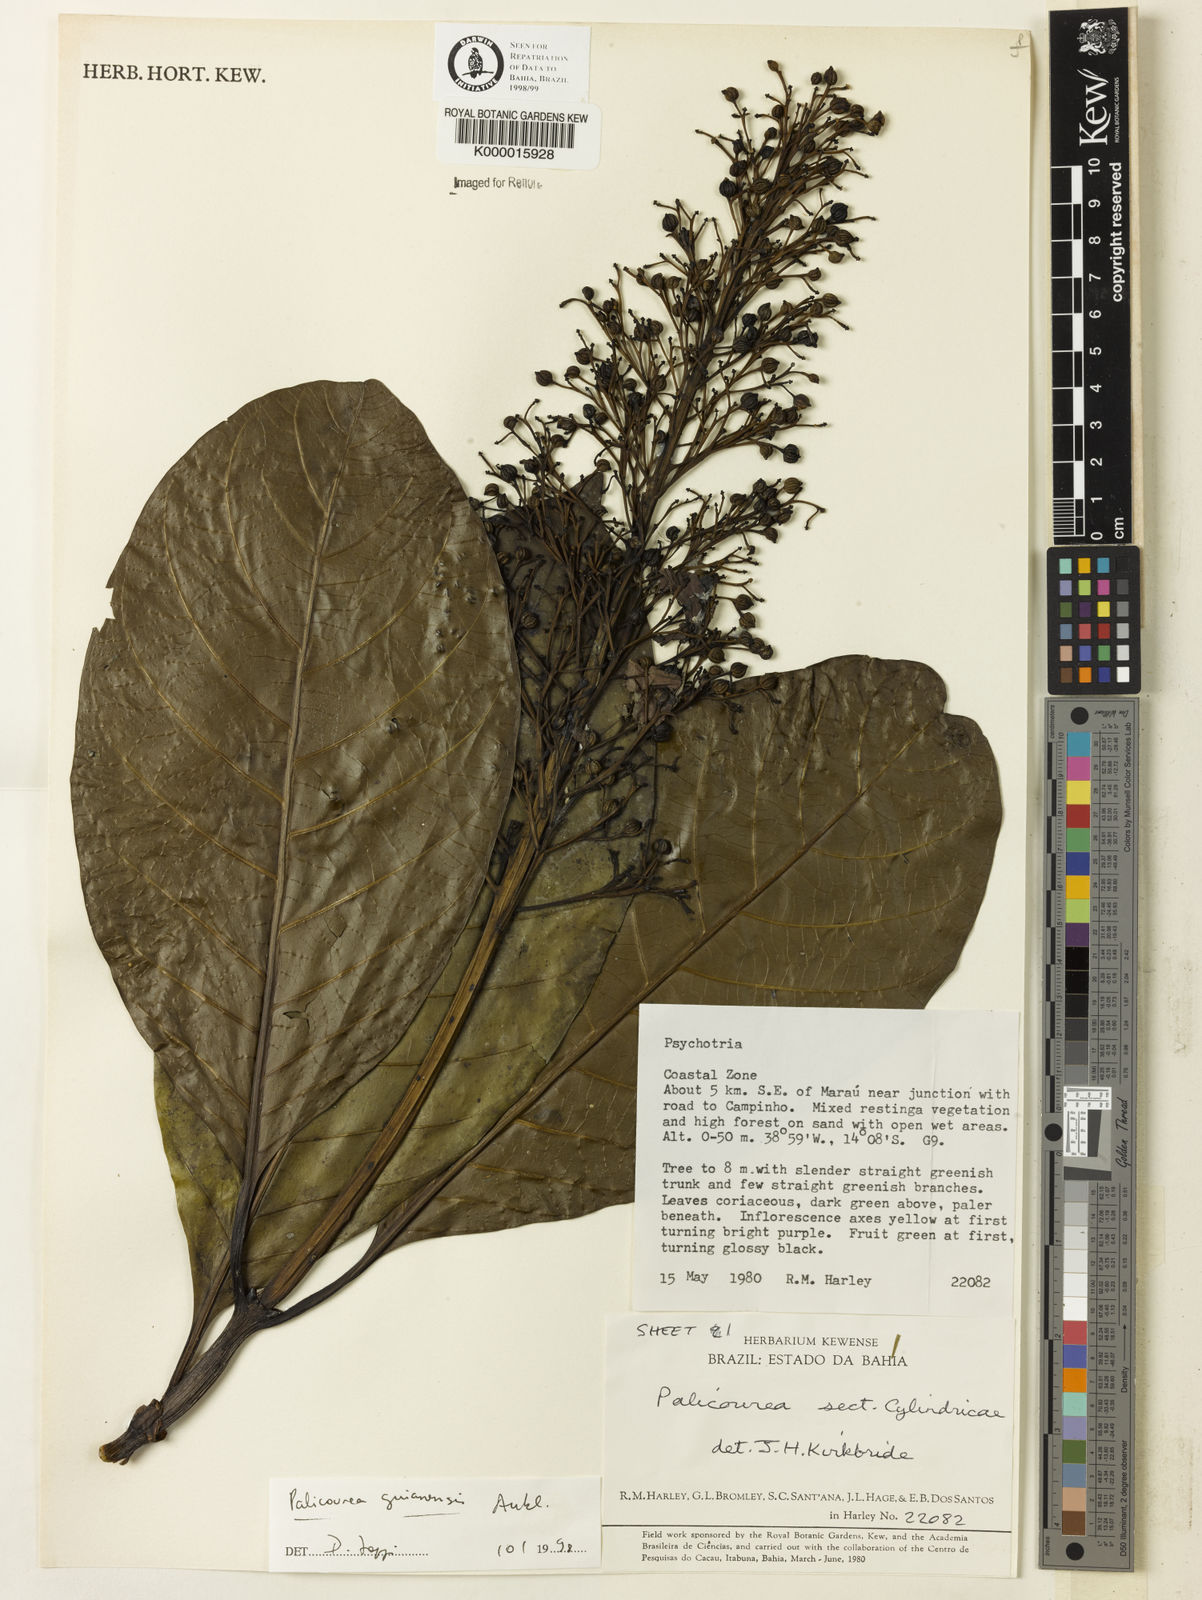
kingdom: Plantae
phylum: Tracheophyta
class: Magnoliopsida
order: Gentianales
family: Rubiaceae
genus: Palicourea
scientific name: Palicourea guianensis
